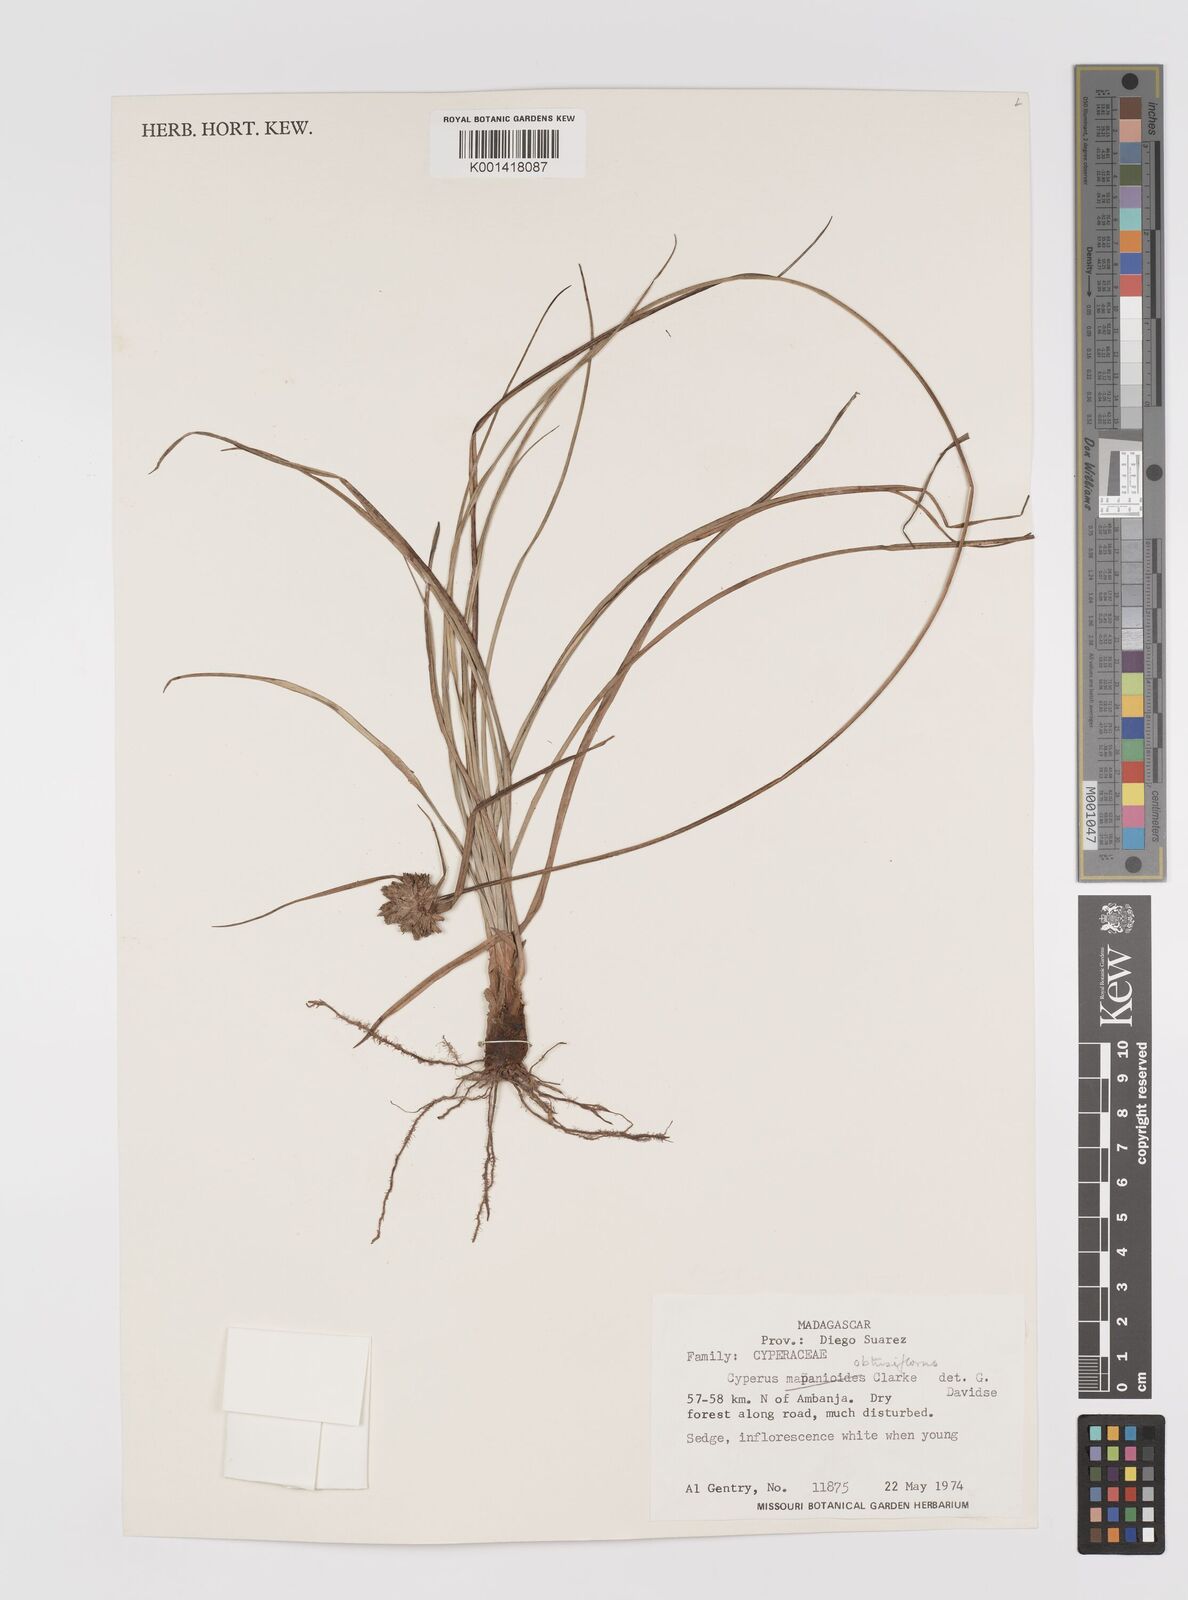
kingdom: Plantae
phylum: Tracheophyta
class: Liliopsida
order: Poales
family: Cyperaceae
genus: Cyperus
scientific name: Cyperus niveus
